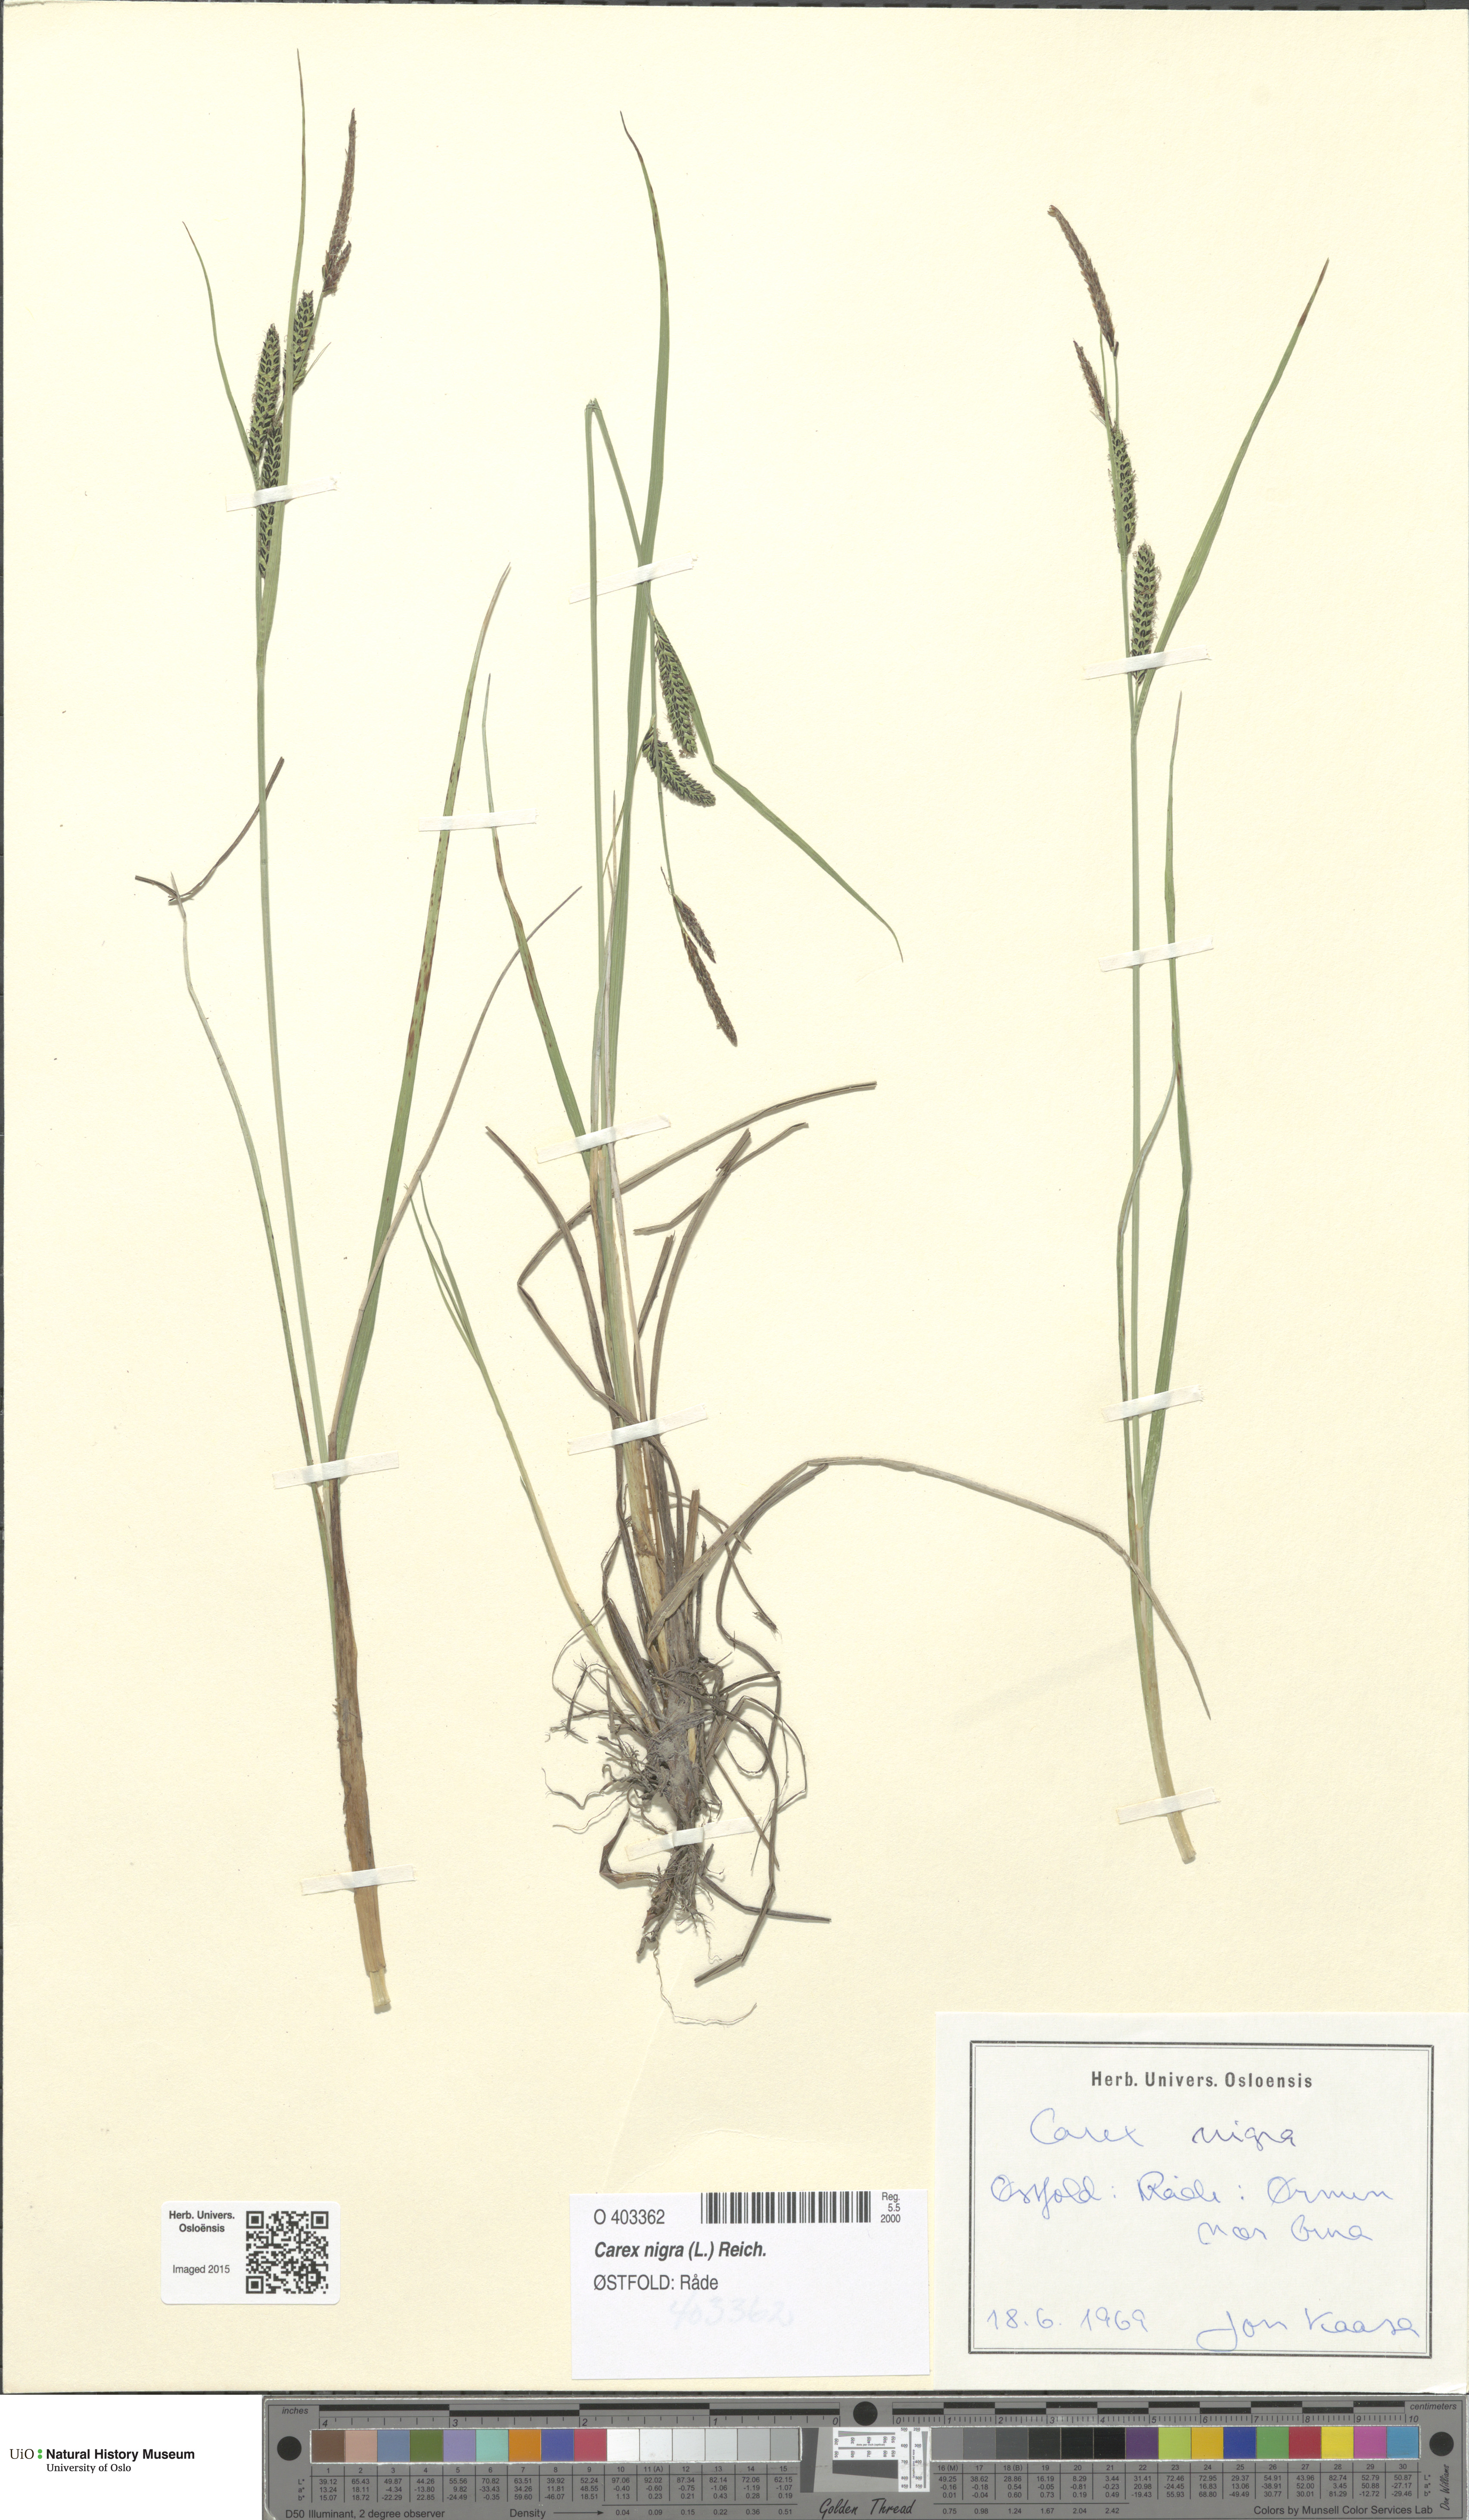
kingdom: Plantae
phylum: Tracheophyta
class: Liliopsida
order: Poales
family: Cyperaceae
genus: Carex
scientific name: Carex nigra
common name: Common sedge
